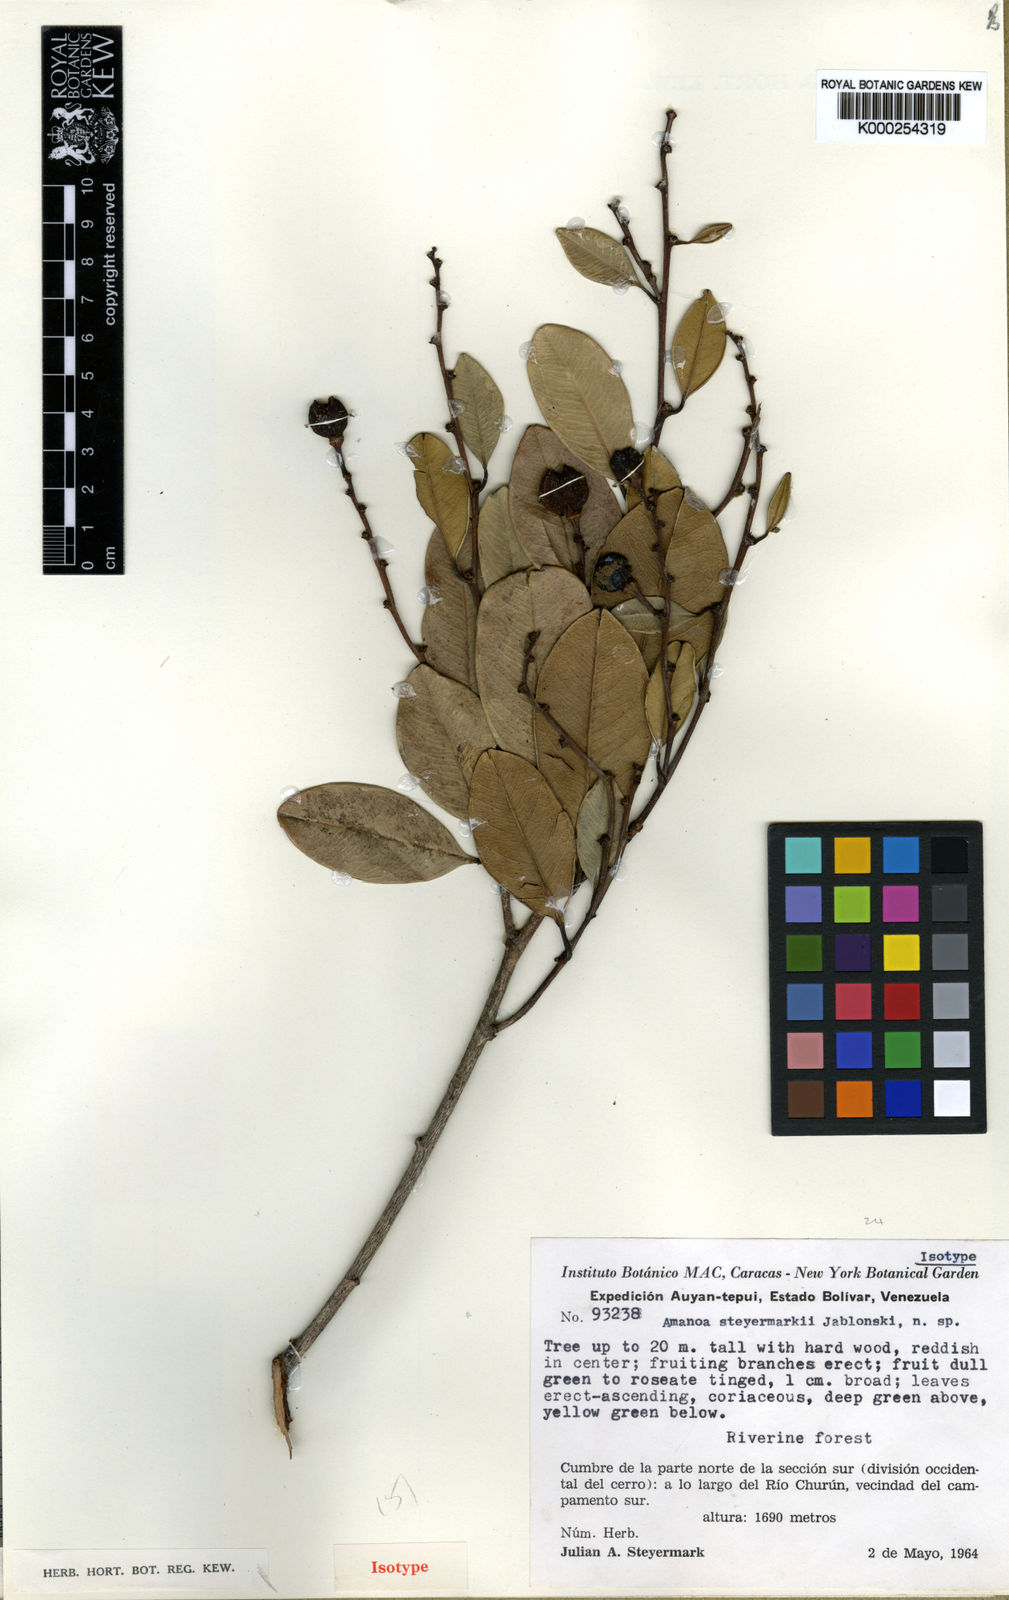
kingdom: Plantae
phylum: Tracheophyta
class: Magnoliopsida
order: Malpighiales
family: Phyllanthaceae
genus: Amanoa
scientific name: Amanoa steyermarkii
